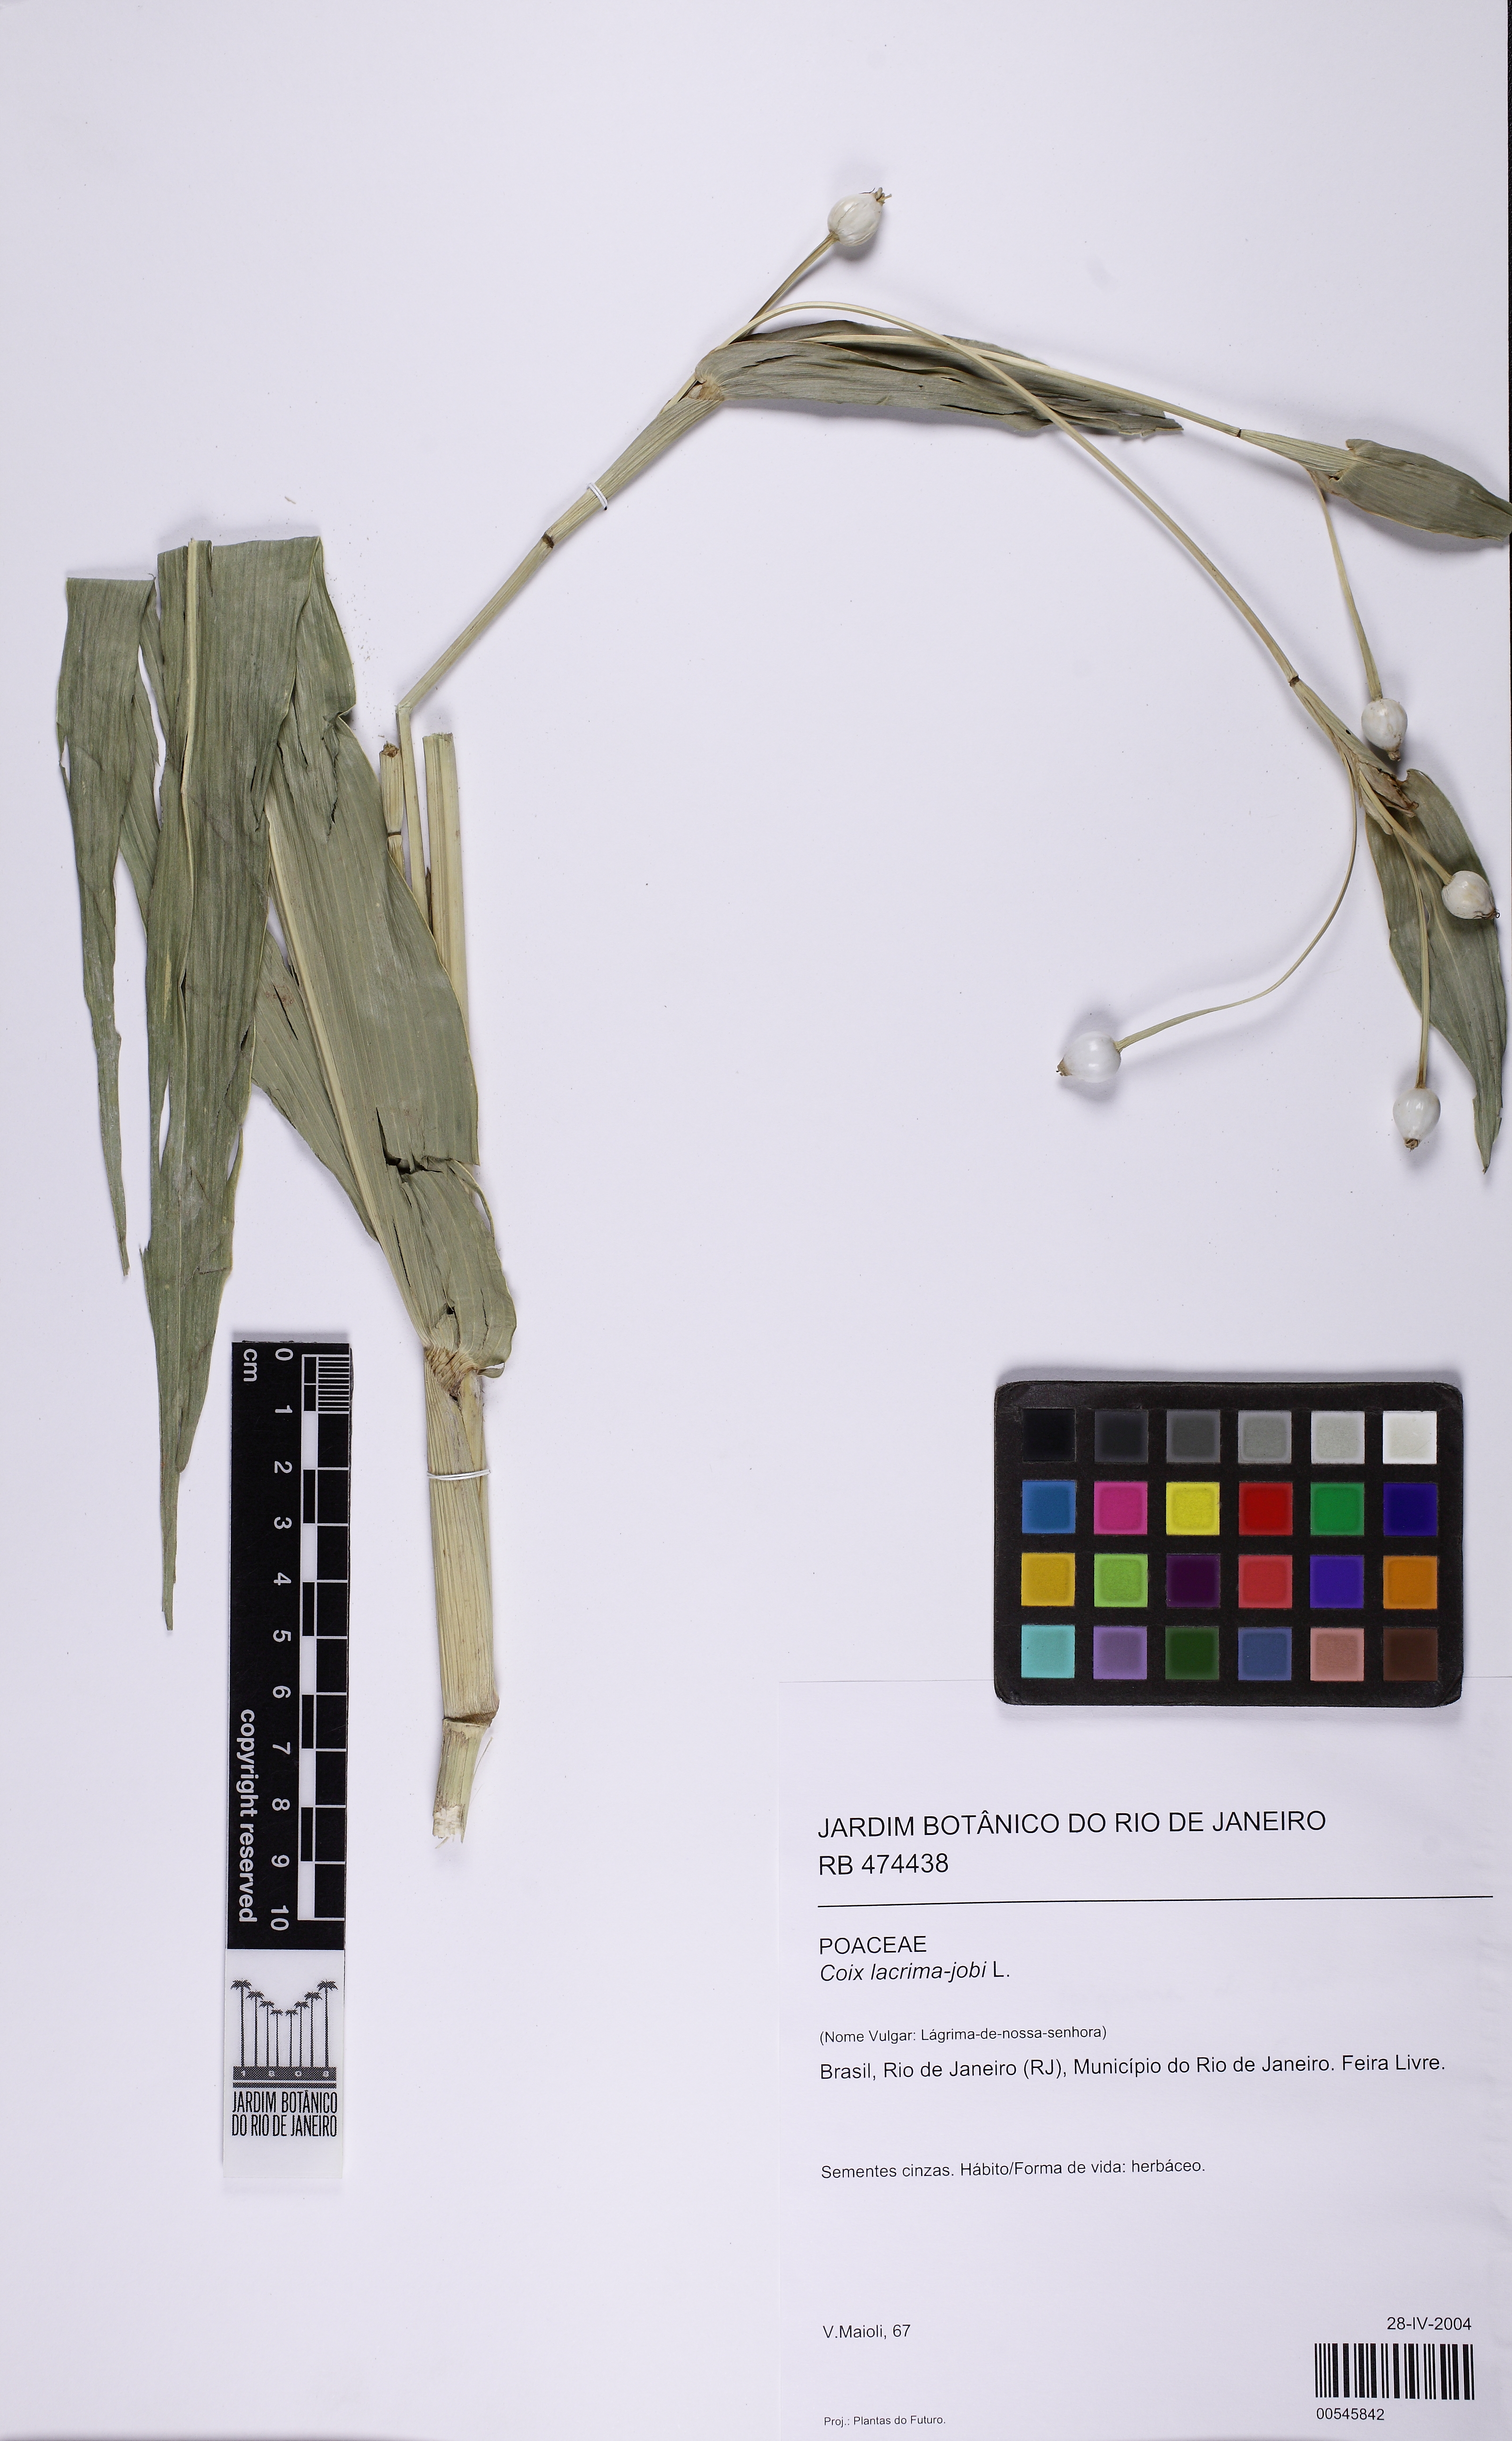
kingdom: Plantae
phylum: Tracheophyta
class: Liliopsida
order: Poales
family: Poaceae
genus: Coix
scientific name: Coix lacryma-jobi
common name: Job's tears
